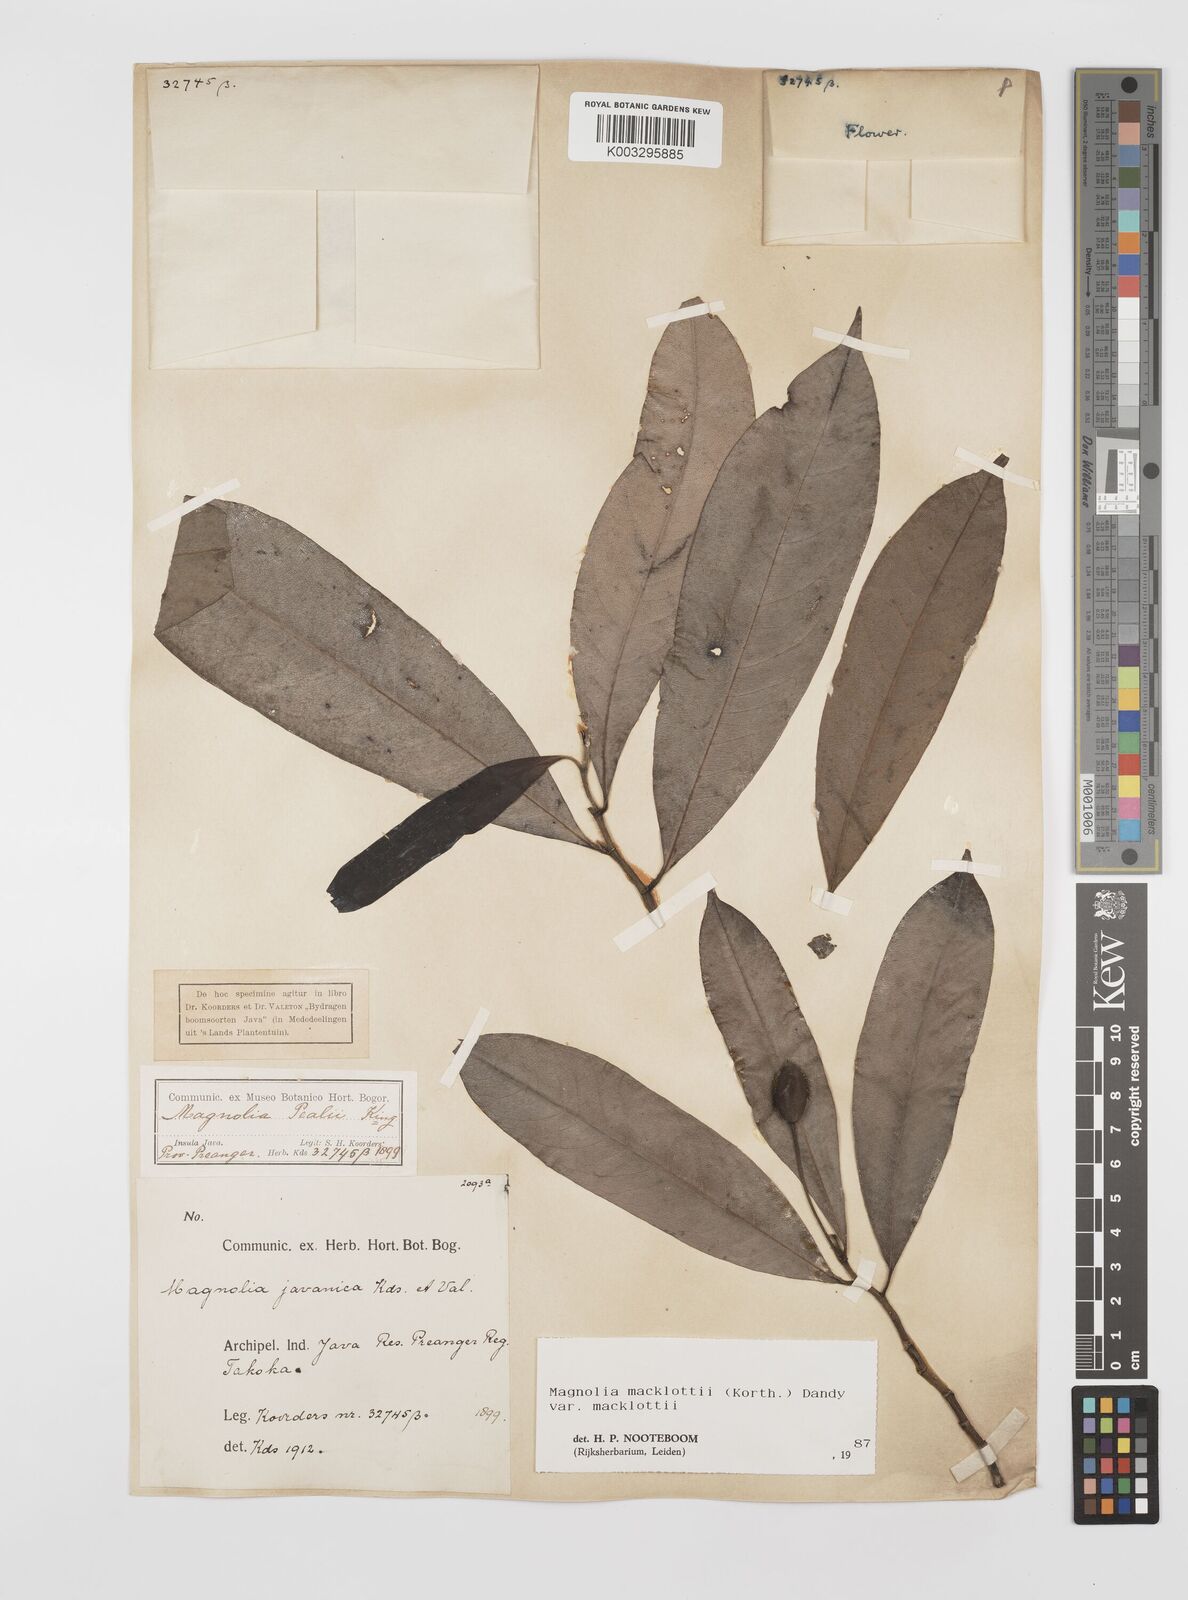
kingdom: Plantae
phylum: Tracheophyta
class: Magnoliopsida
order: Magnoliales
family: Magnoliaceae
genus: Magnolia
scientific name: Magnolia macklottii
